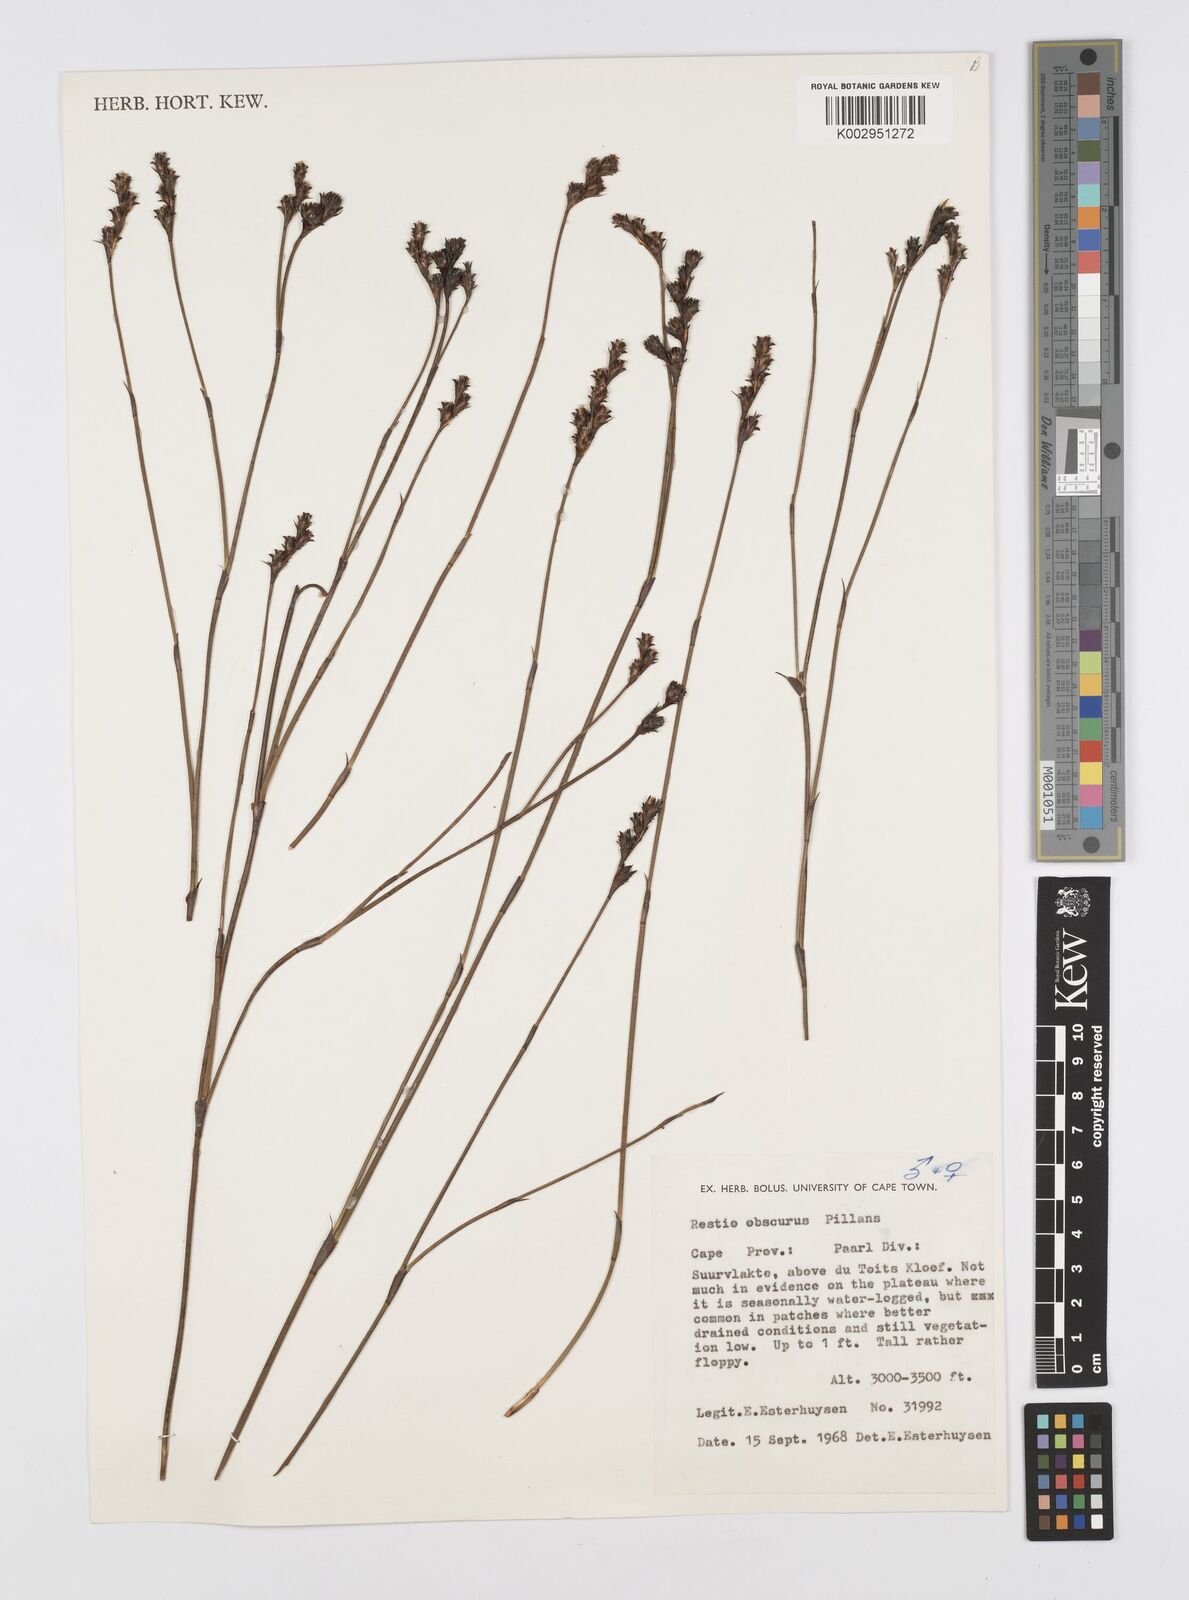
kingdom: Plantae
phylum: Tracheophyta
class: Liliopsida
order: Poales
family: Restionaceae
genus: Restio
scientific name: Restio obscurus
